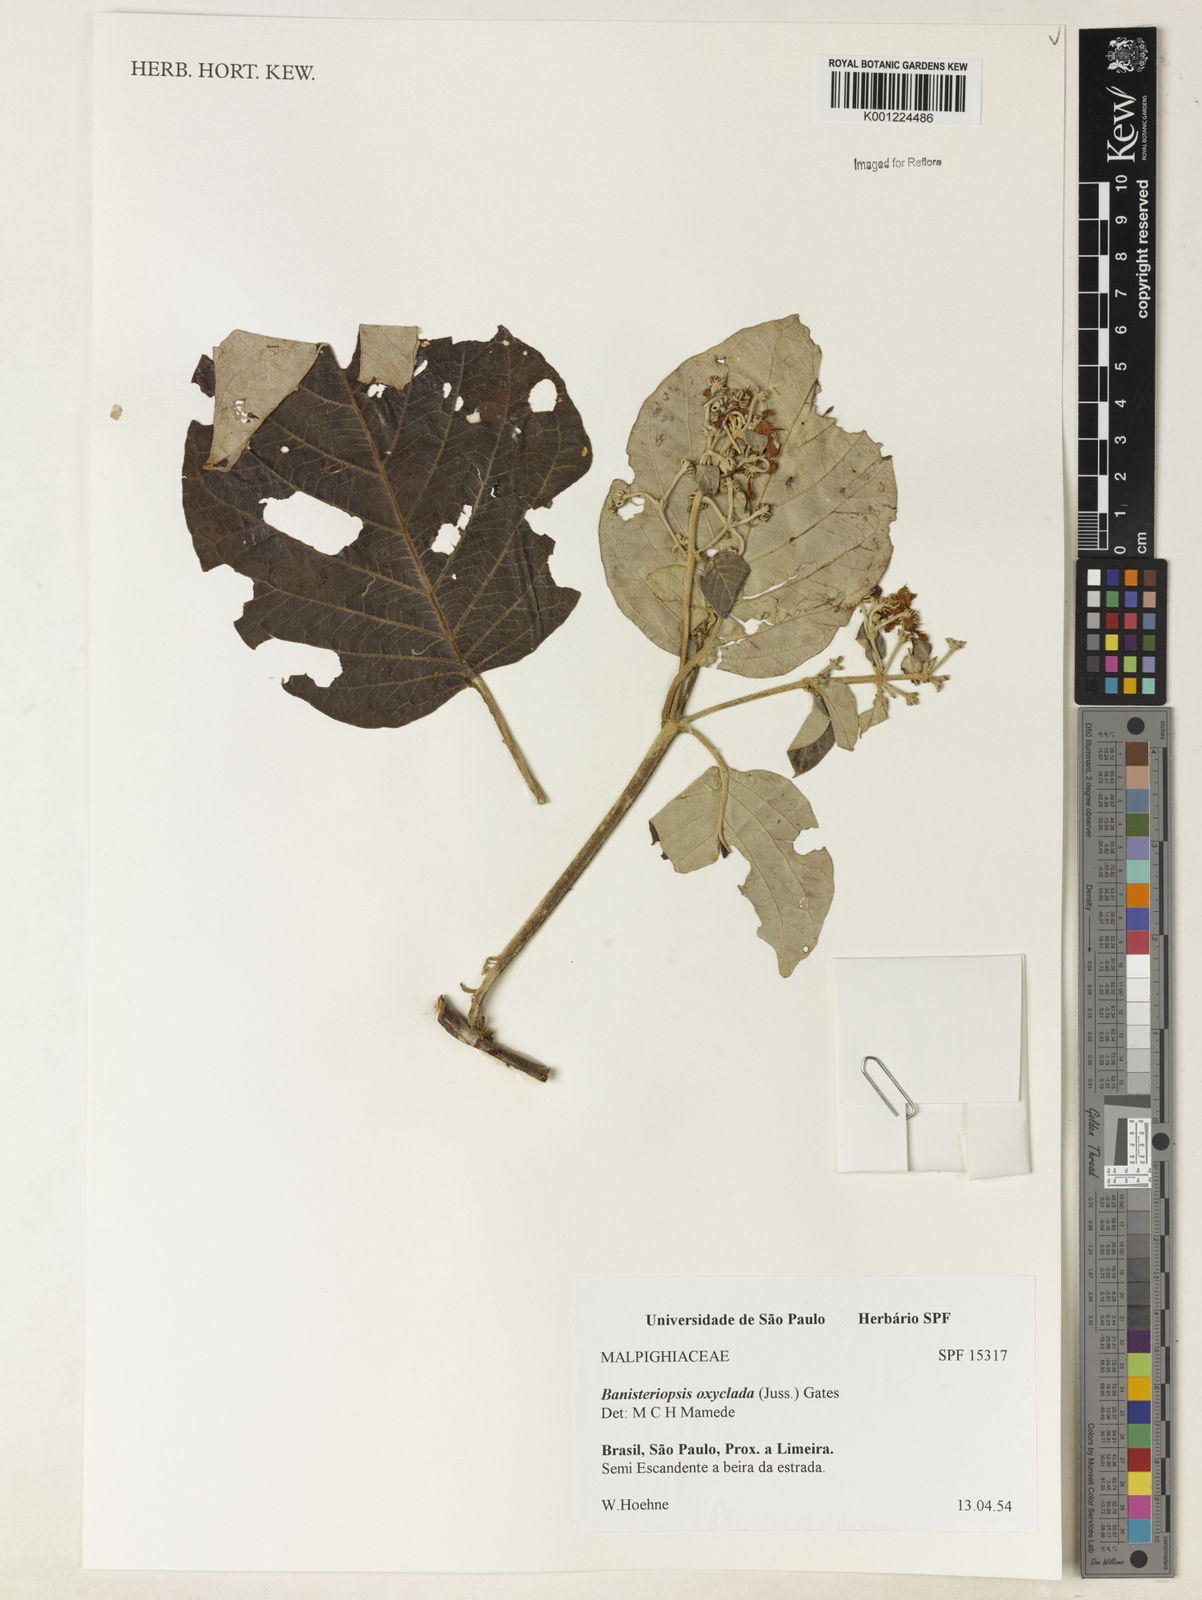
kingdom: Plantae
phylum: Tracheophyta
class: Magnoliopsida
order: Malpighiales
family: Malpighiaceae
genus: Banisteriopsis
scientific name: Banisteriopsis oxyclada
